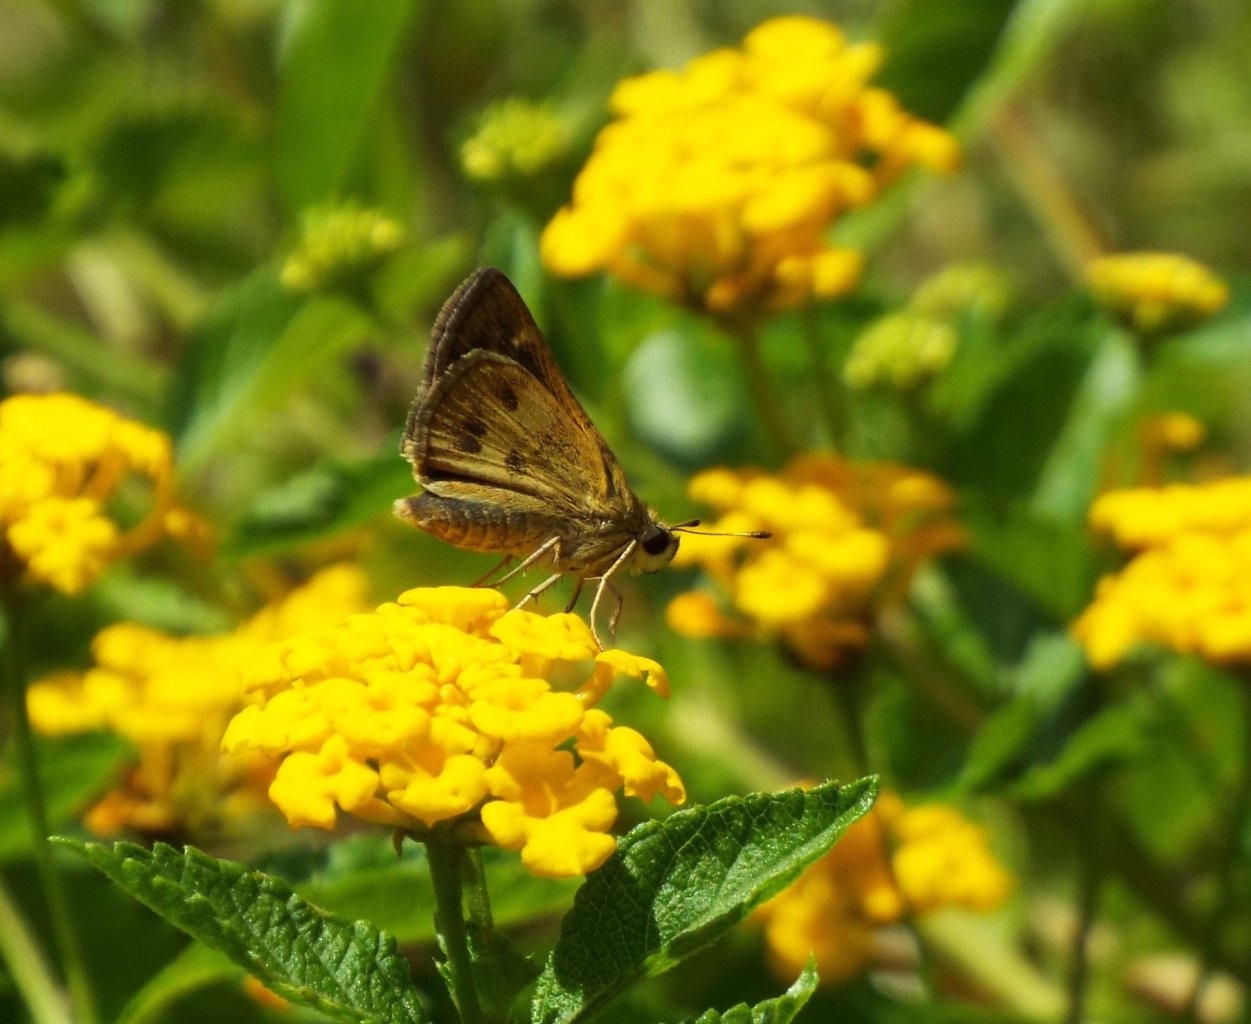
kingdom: Animalia
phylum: Arthropoda
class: Insecta
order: Lepidoptera
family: Hesperiidae
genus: Polites
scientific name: Polites vibex
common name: Whirlabout
